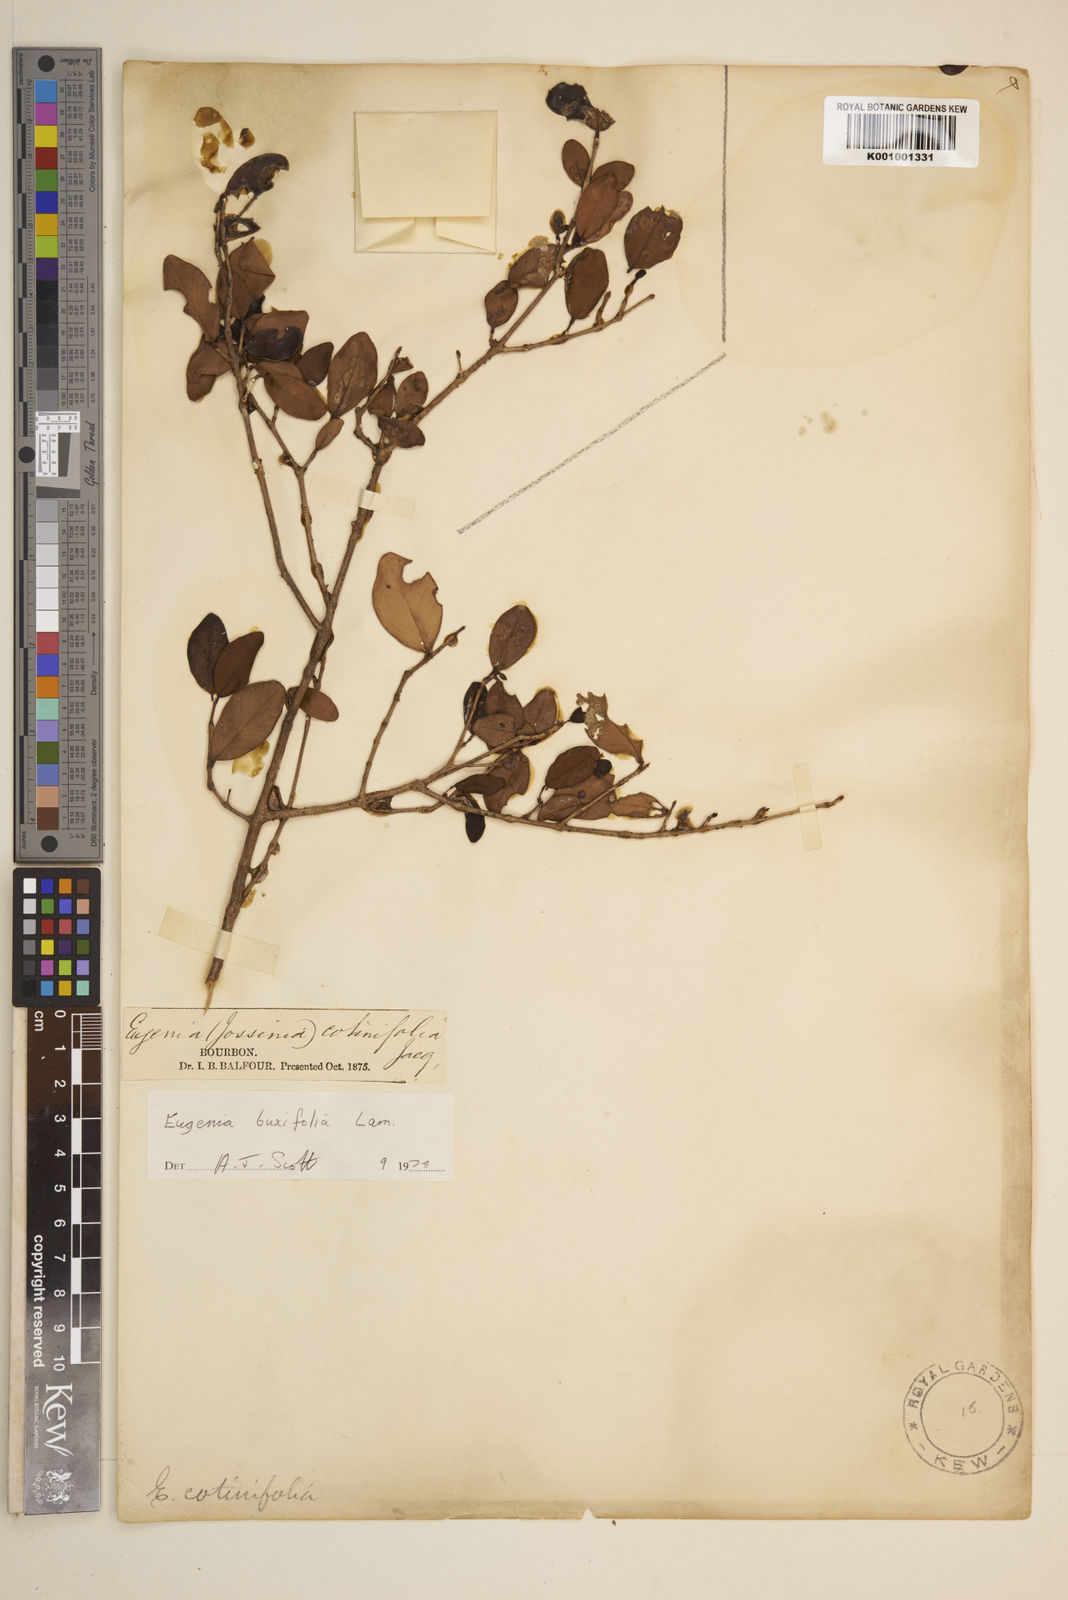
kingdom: Plantae
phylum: Tracheophyta
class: Magnoliopsida
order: Myrtales
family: Myrtaceae
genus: Eugenia
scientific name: Eugenia buxifolia
